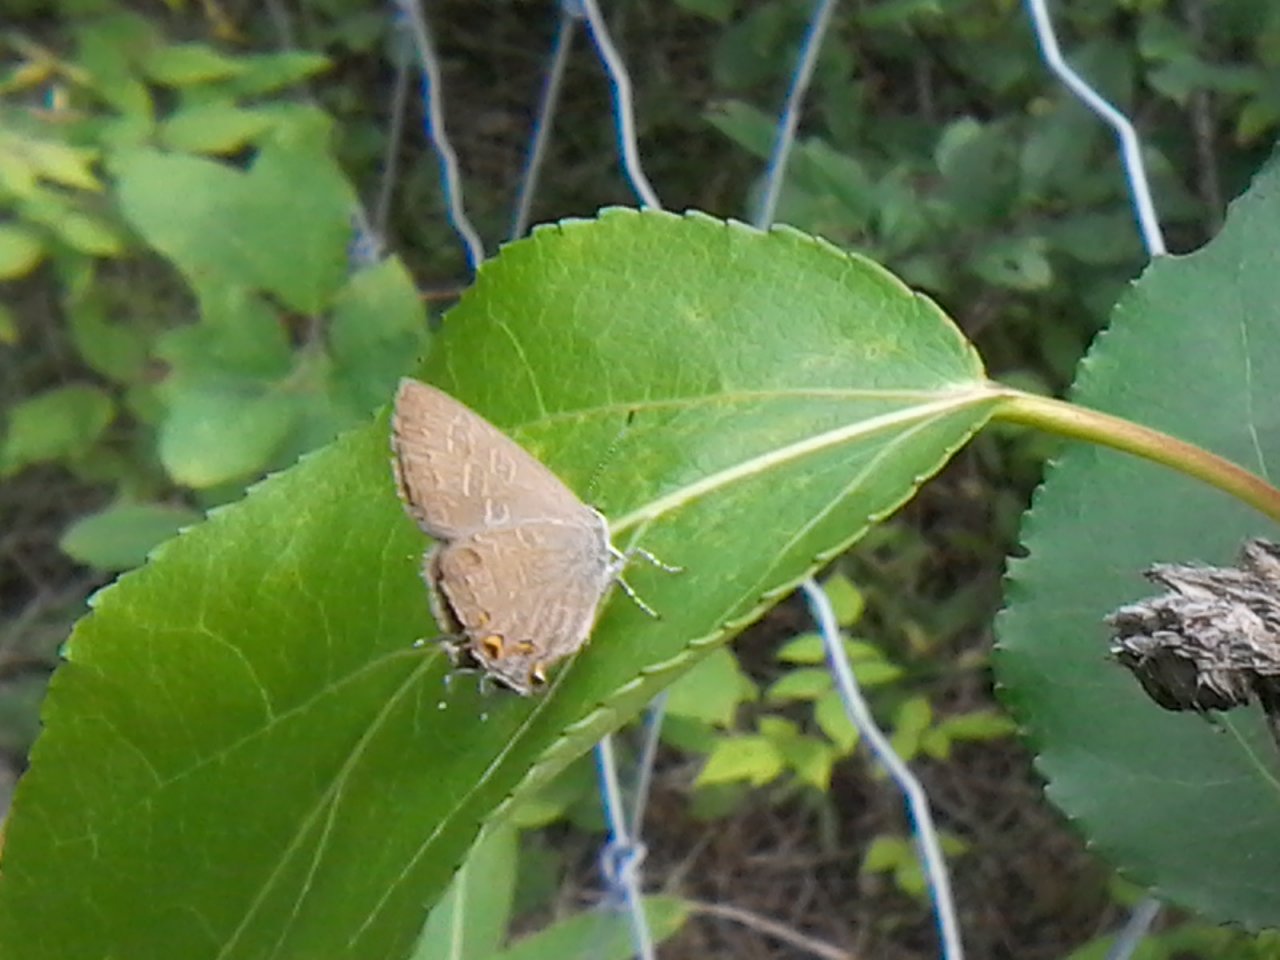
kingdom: Animalia
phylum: Arthropoda
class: Insecta
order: Lepidoptera
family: Lycaenidae
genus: Satyrium
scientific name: Satyrium liparops
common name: Striped Hairstreak
